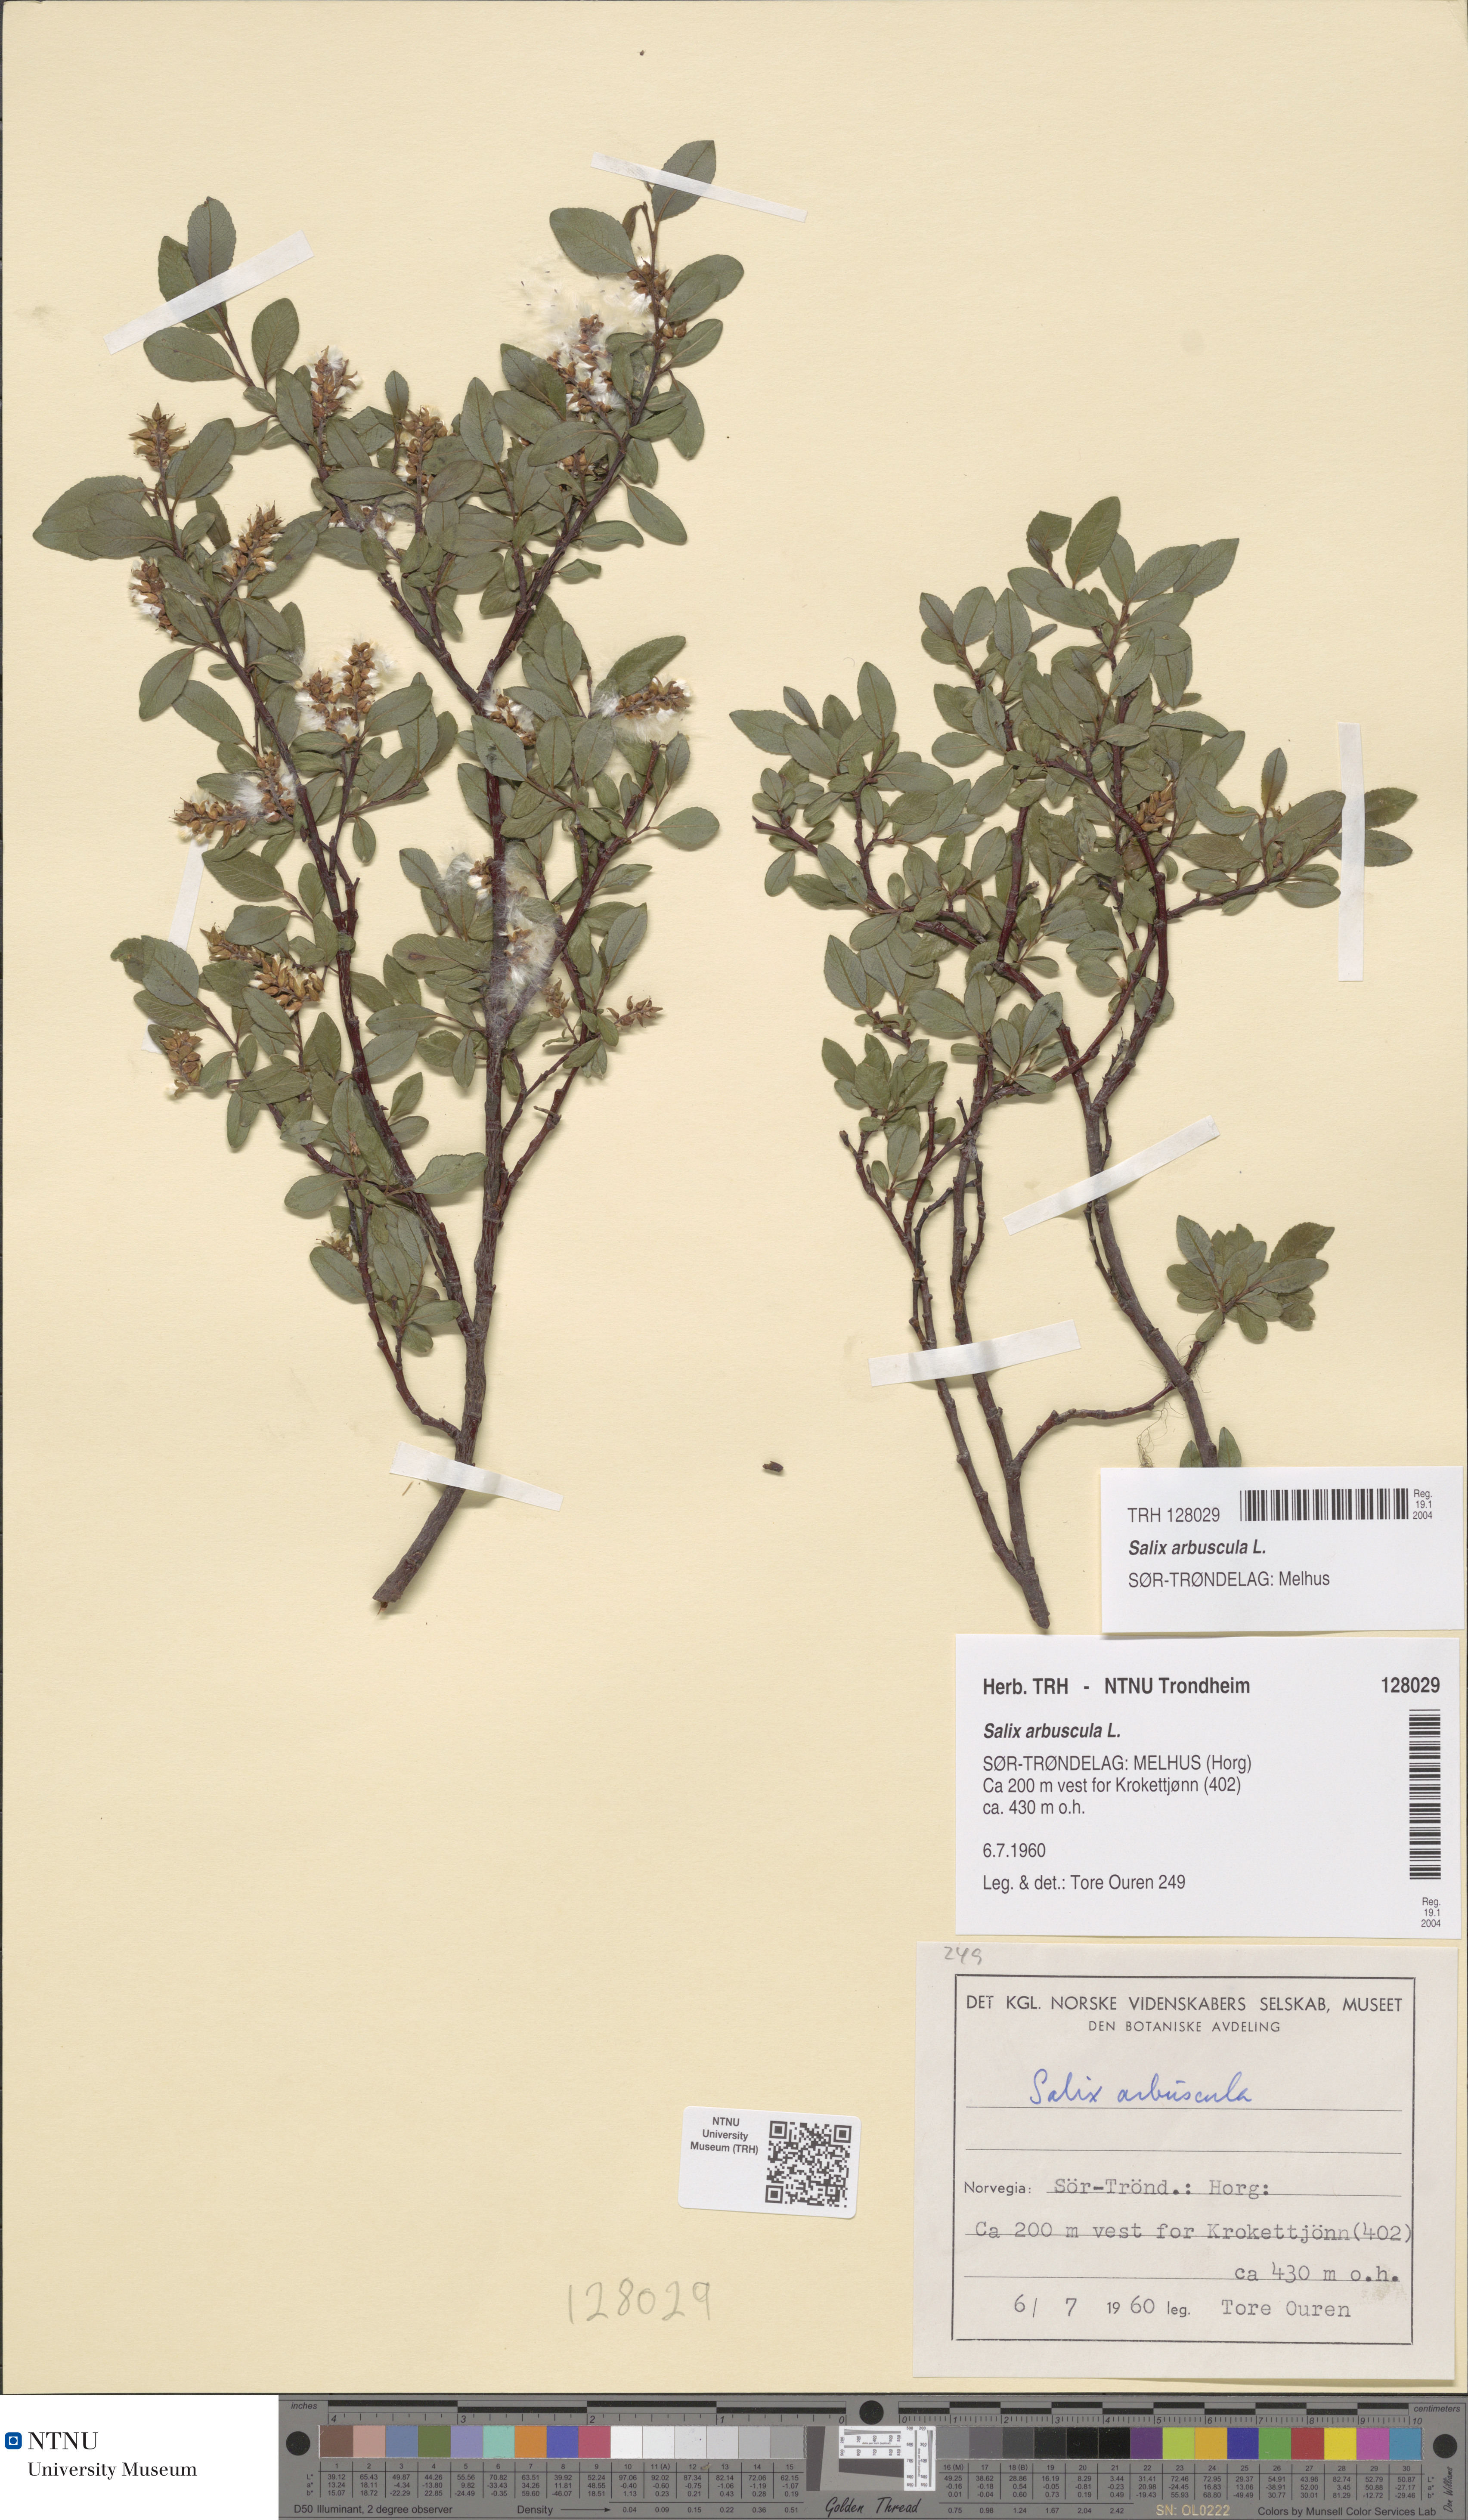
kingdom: Plantae
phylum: Tracheophyta
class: Magnoliopsida
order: Malpighiales
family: Salicaceae
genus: Salix
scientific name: Salix arbuscula
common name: Mountain willow
